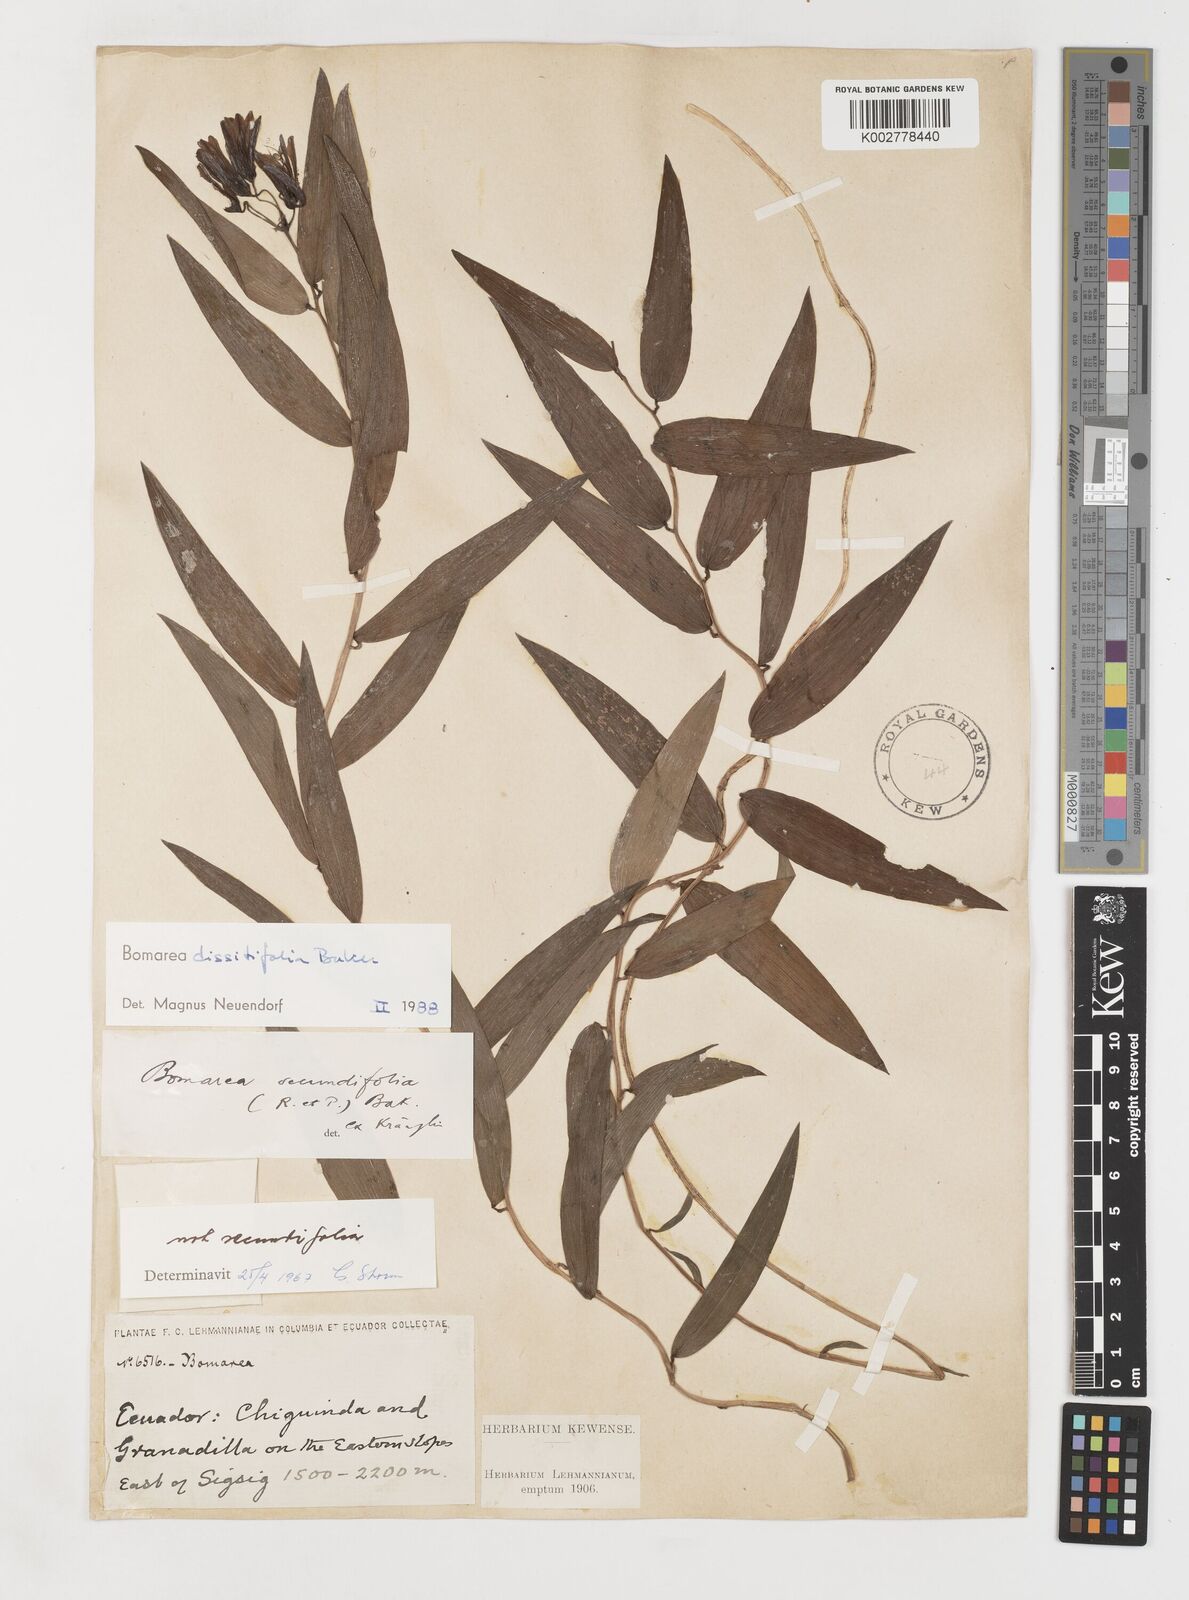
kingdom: Plantae
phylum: Tracheophyta
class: Liliopsida
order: Liliales
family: Alstroemeriaceae
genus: Bomarea
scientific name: Bomarea dissitifolia
